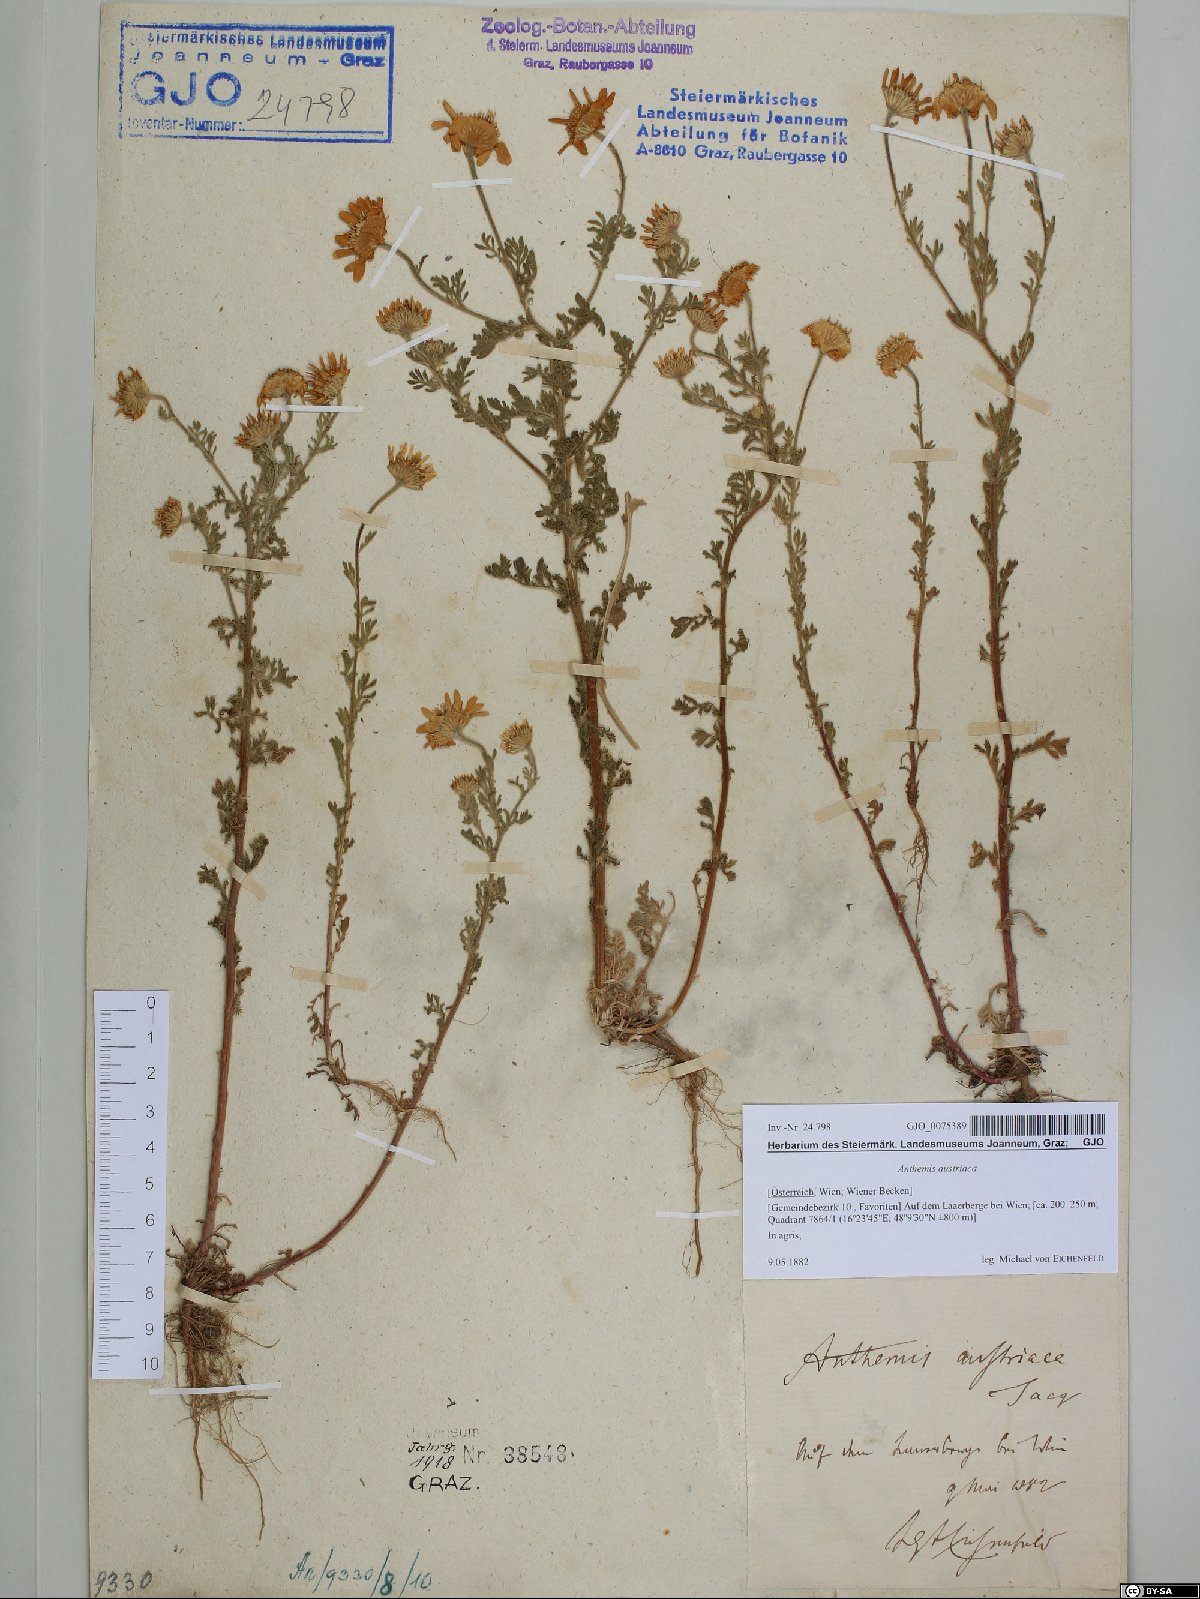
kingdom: Plantae
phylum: Tracheophyta
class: Magnoliopsida
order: Asterales
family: Asteraceae
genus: Cota
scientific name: Cota austriaca
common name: Austrian chamomile
